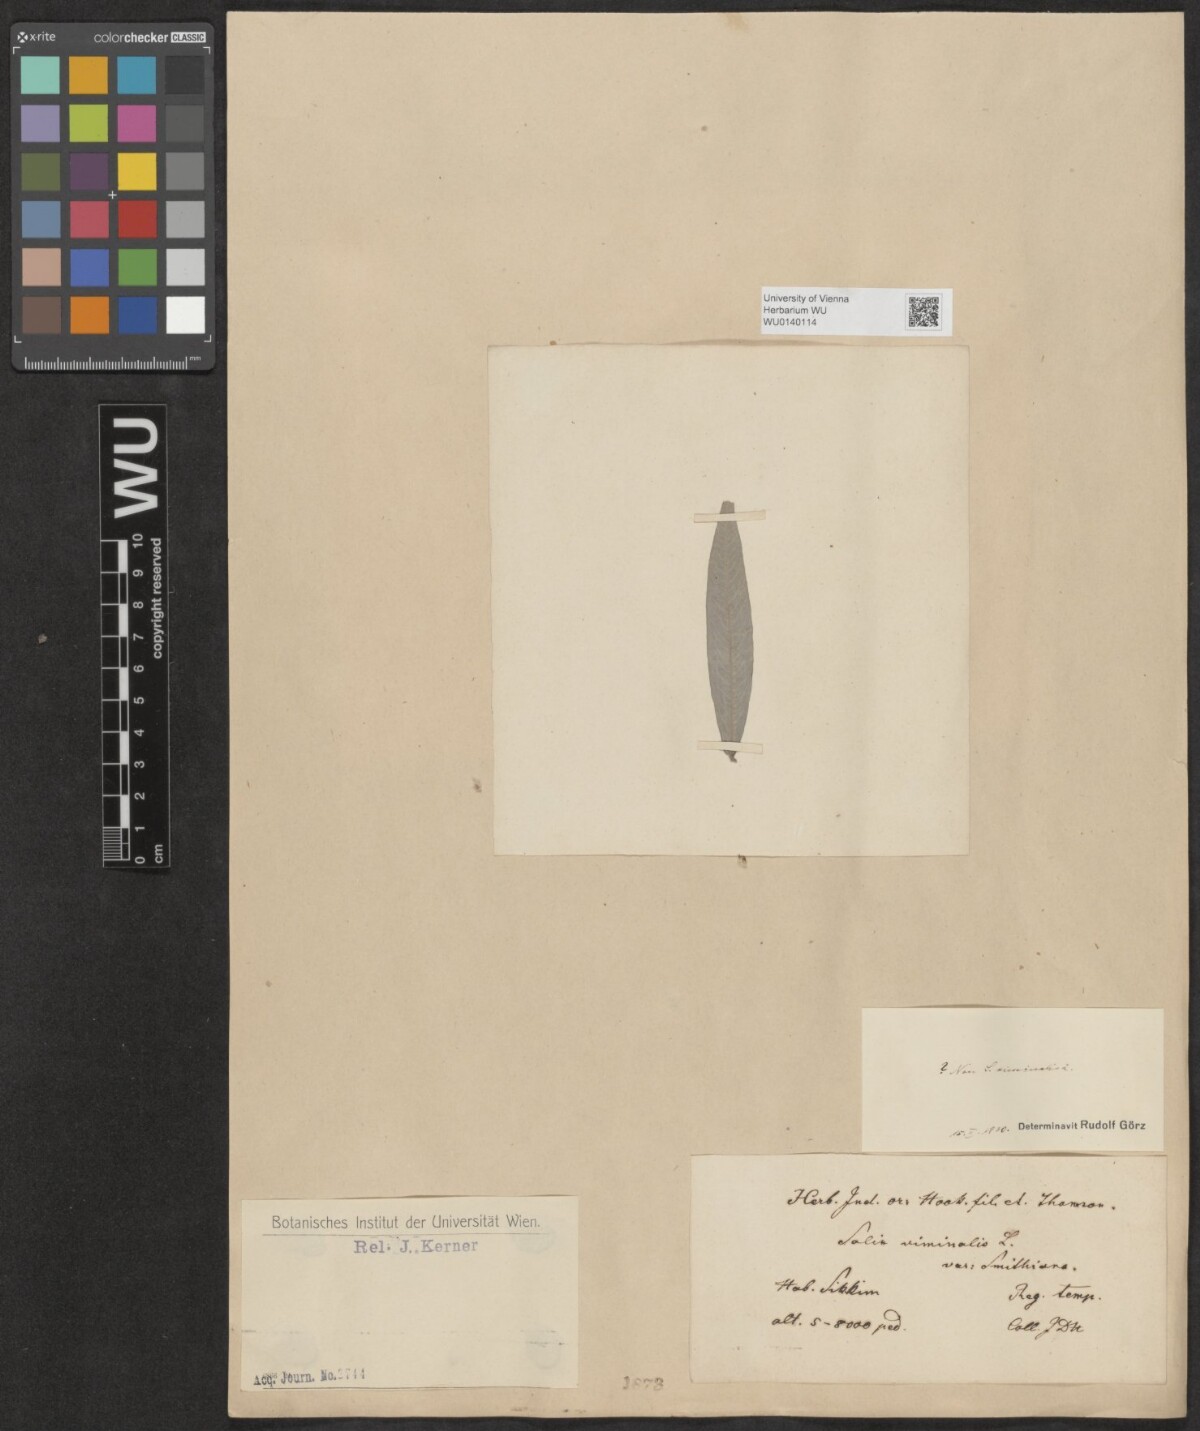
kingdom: Plantae
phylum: Tracheophyta
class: Magnoliopsida
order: Malpighiales
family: Salicaceae
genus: Salix
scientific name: Salix viminalis
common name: Osier
